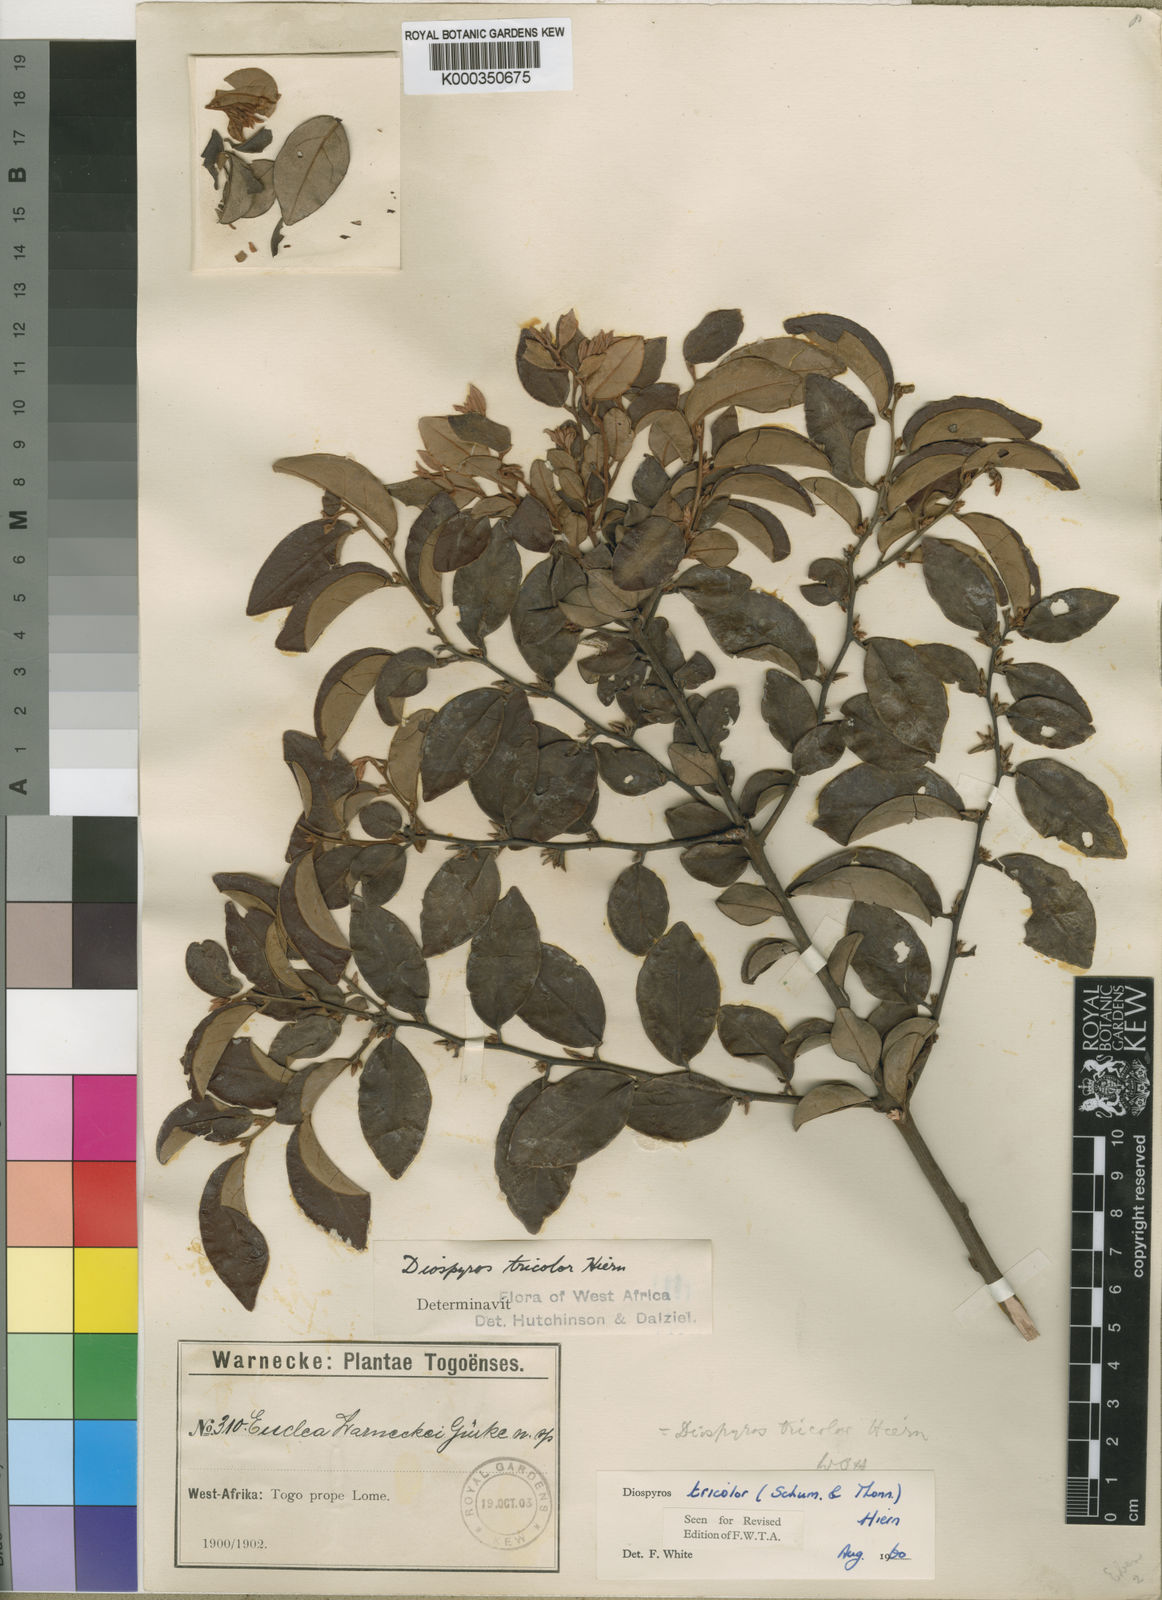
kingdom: Plantae
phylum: Tracheophyta
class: Magnoliopsida
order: Ericales
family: Ebenaceae
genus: Diospyros
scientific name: Diospyros tricolor
